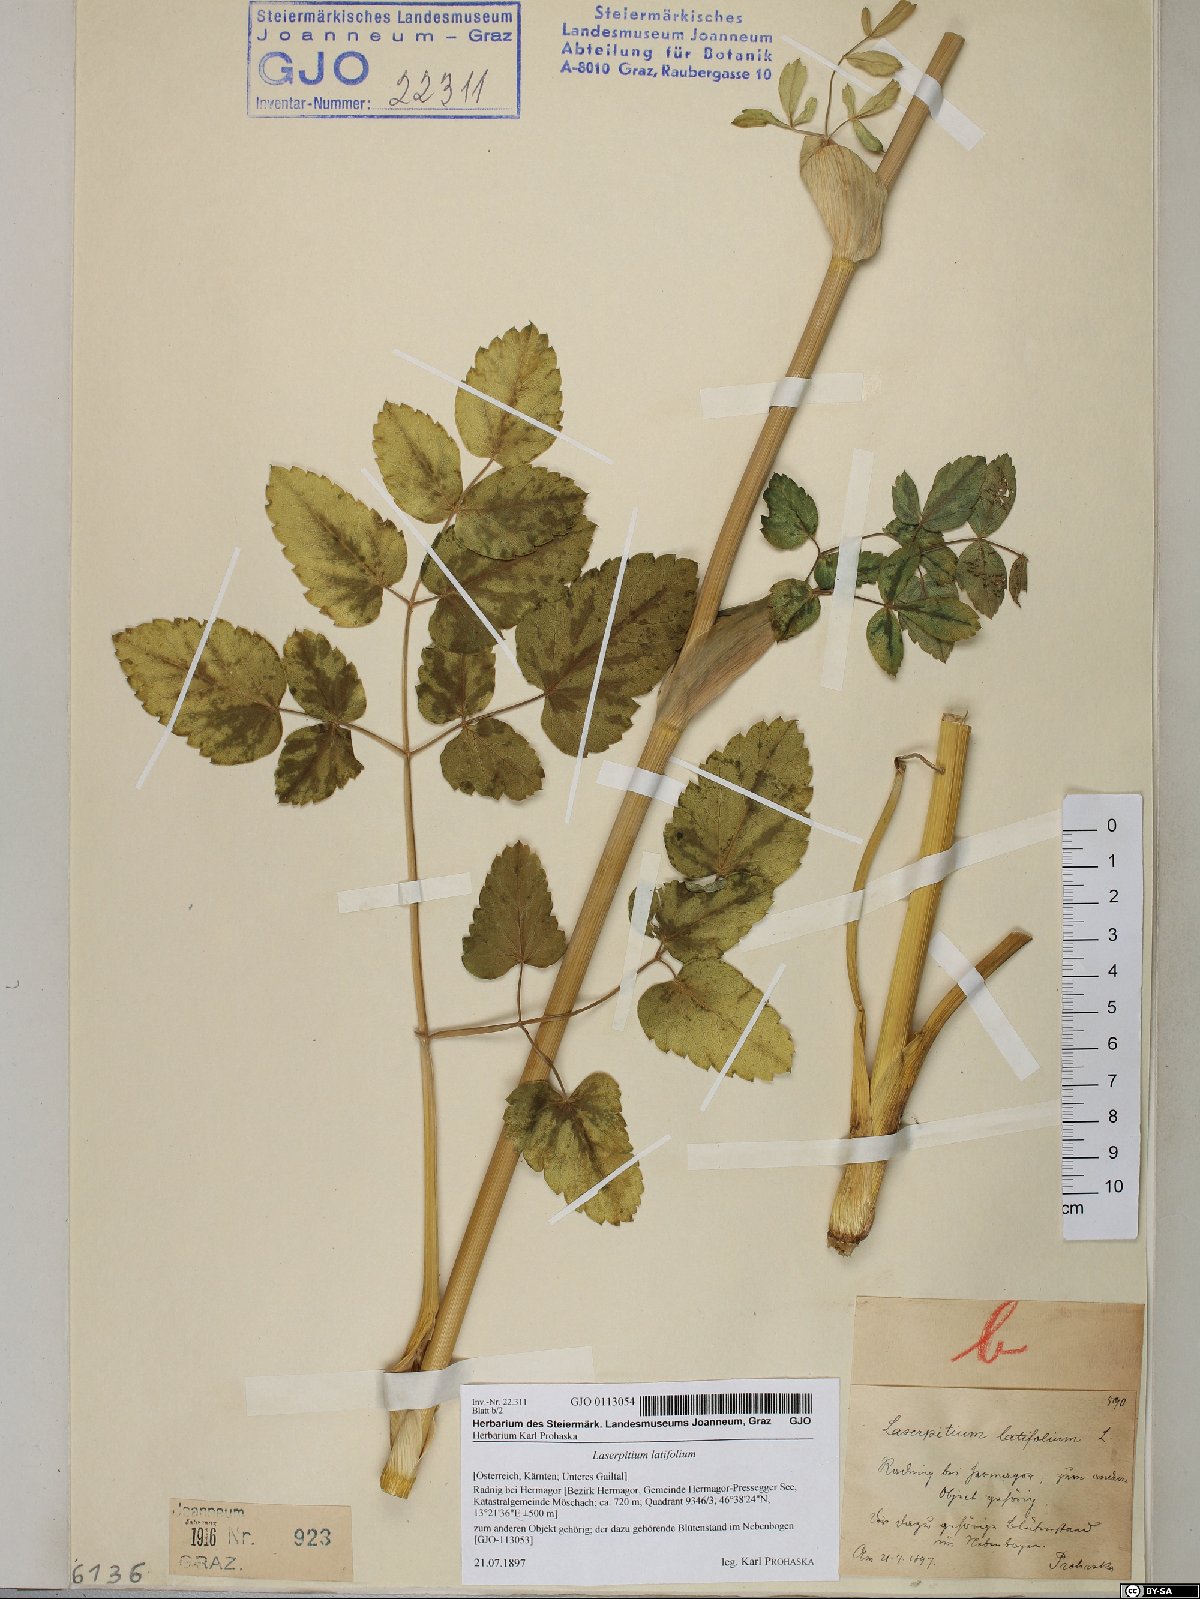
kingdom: Plantae
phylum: Tracheophyta
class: Magnoliopsida
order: Apiales
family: Apiaceae
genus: Laserpitium
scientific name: Laserpitium latifolium
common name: Broadleaf sermountain
